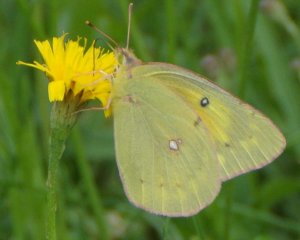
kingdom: Animalia
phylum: Arthropoda
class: Insecta
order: Lepidoptera
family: Pieridae
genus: Colias
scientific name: Colias eurytheme
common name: Orange Sulphur
